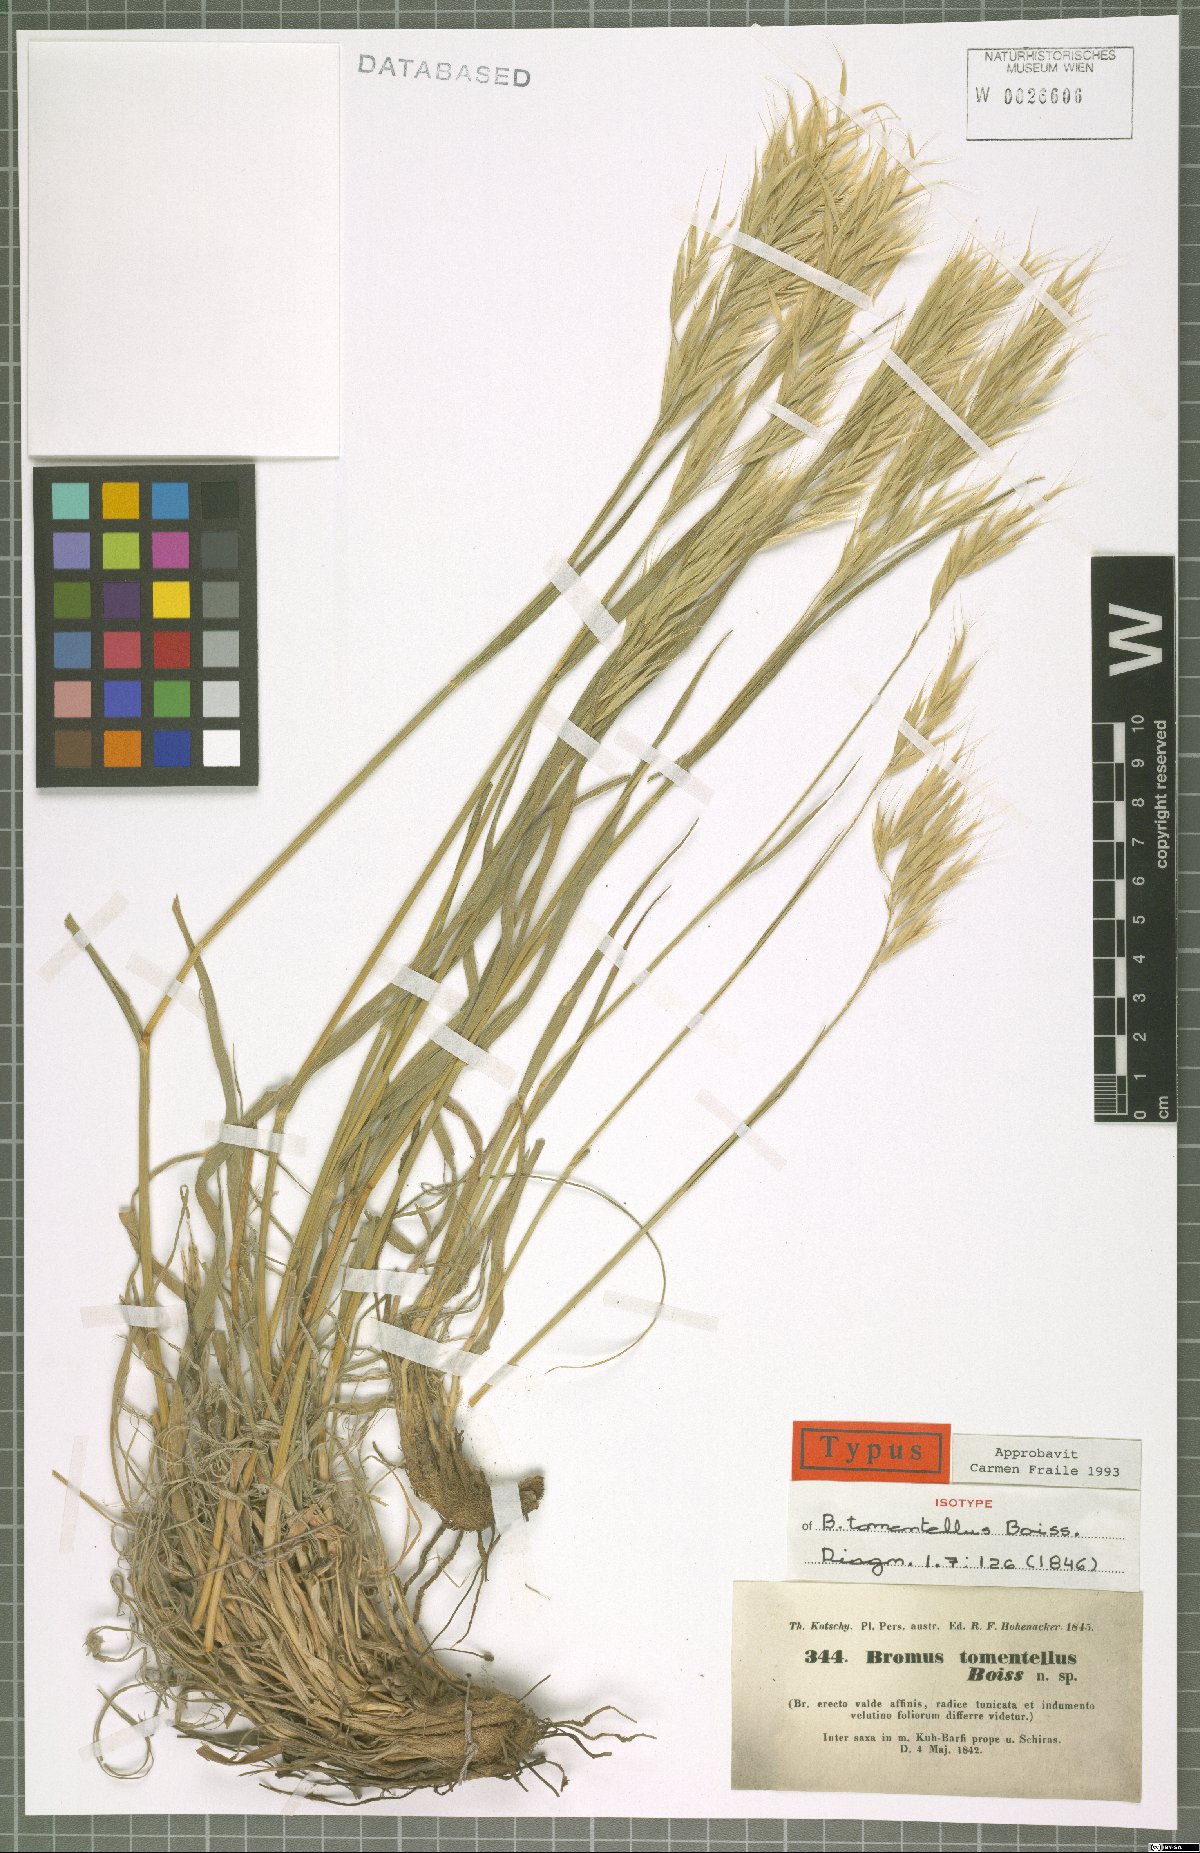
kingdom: Plantae
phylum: Tracheophyta
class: Liliopsida
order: Poales
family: Poaceae
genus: Bromus
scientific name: Bromus tomentellus
